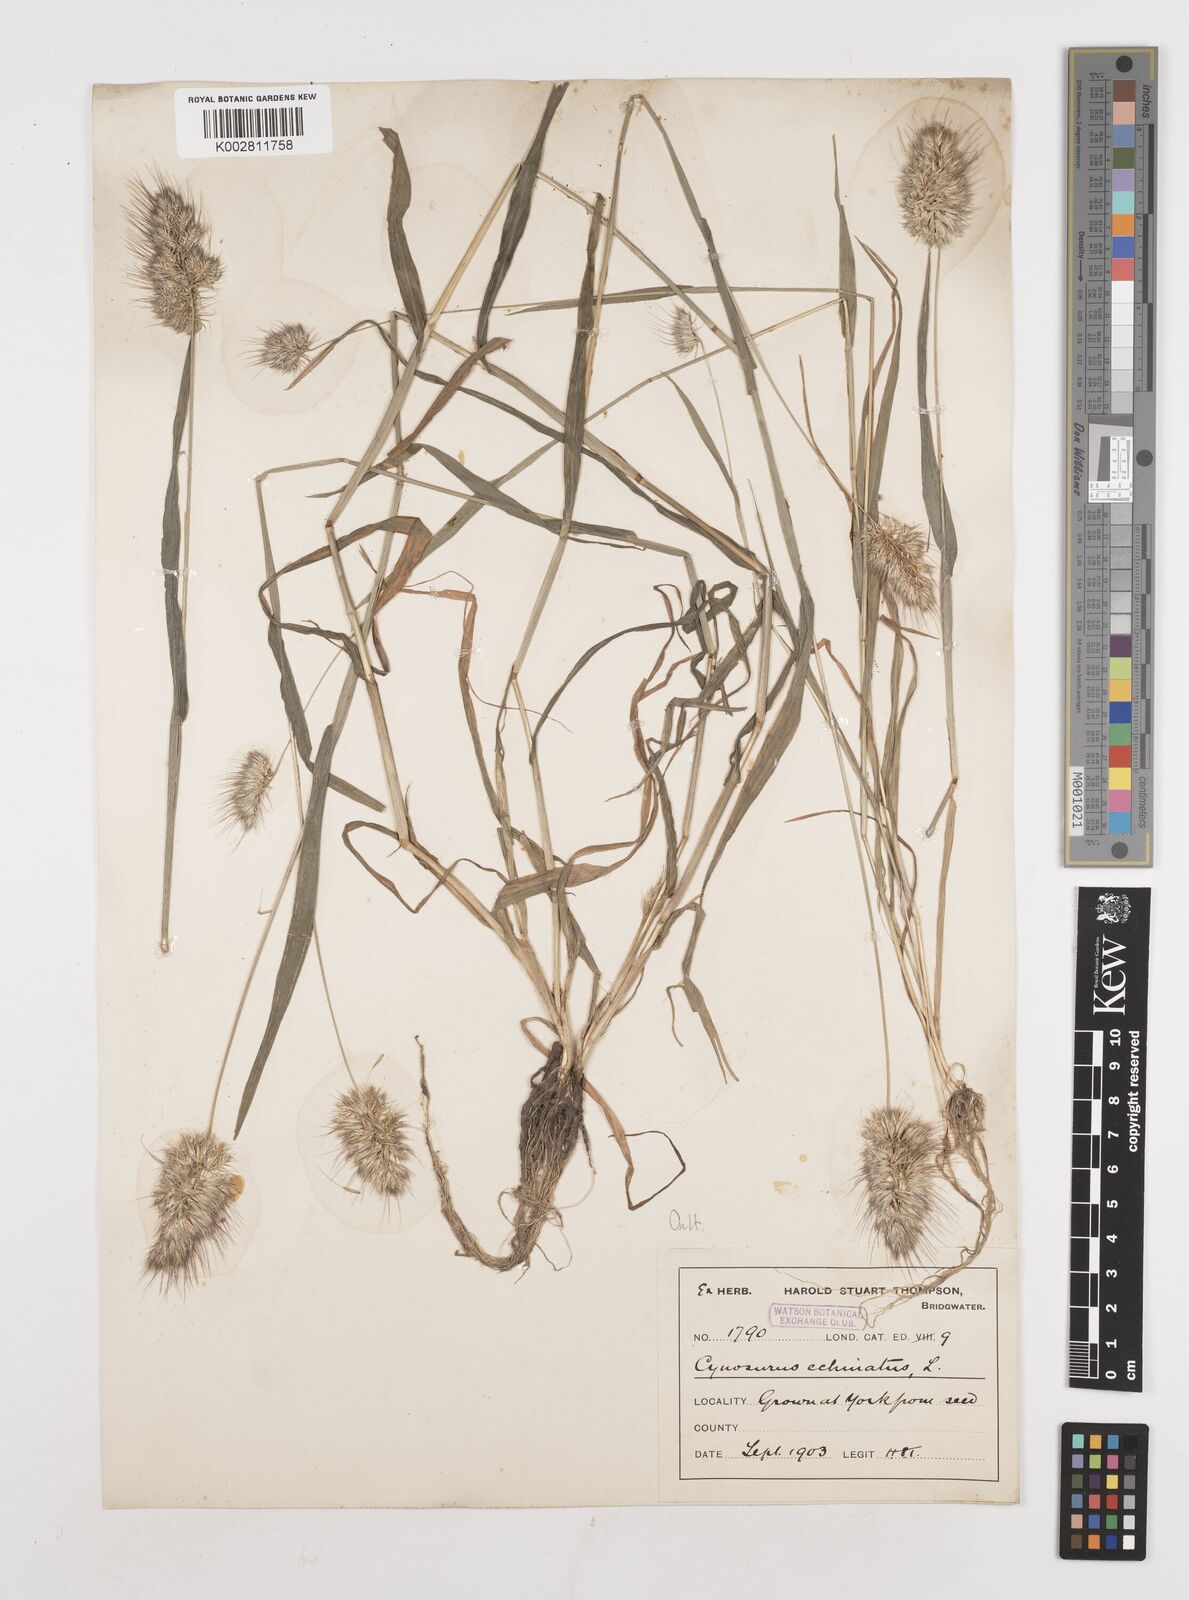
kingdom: Plantae
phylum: Tracheophyta
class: Liliopsida
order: Poales
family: Poaceae
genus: Cynosurus
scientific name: Cynosurus echinatus
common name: Rough dog's-tail
